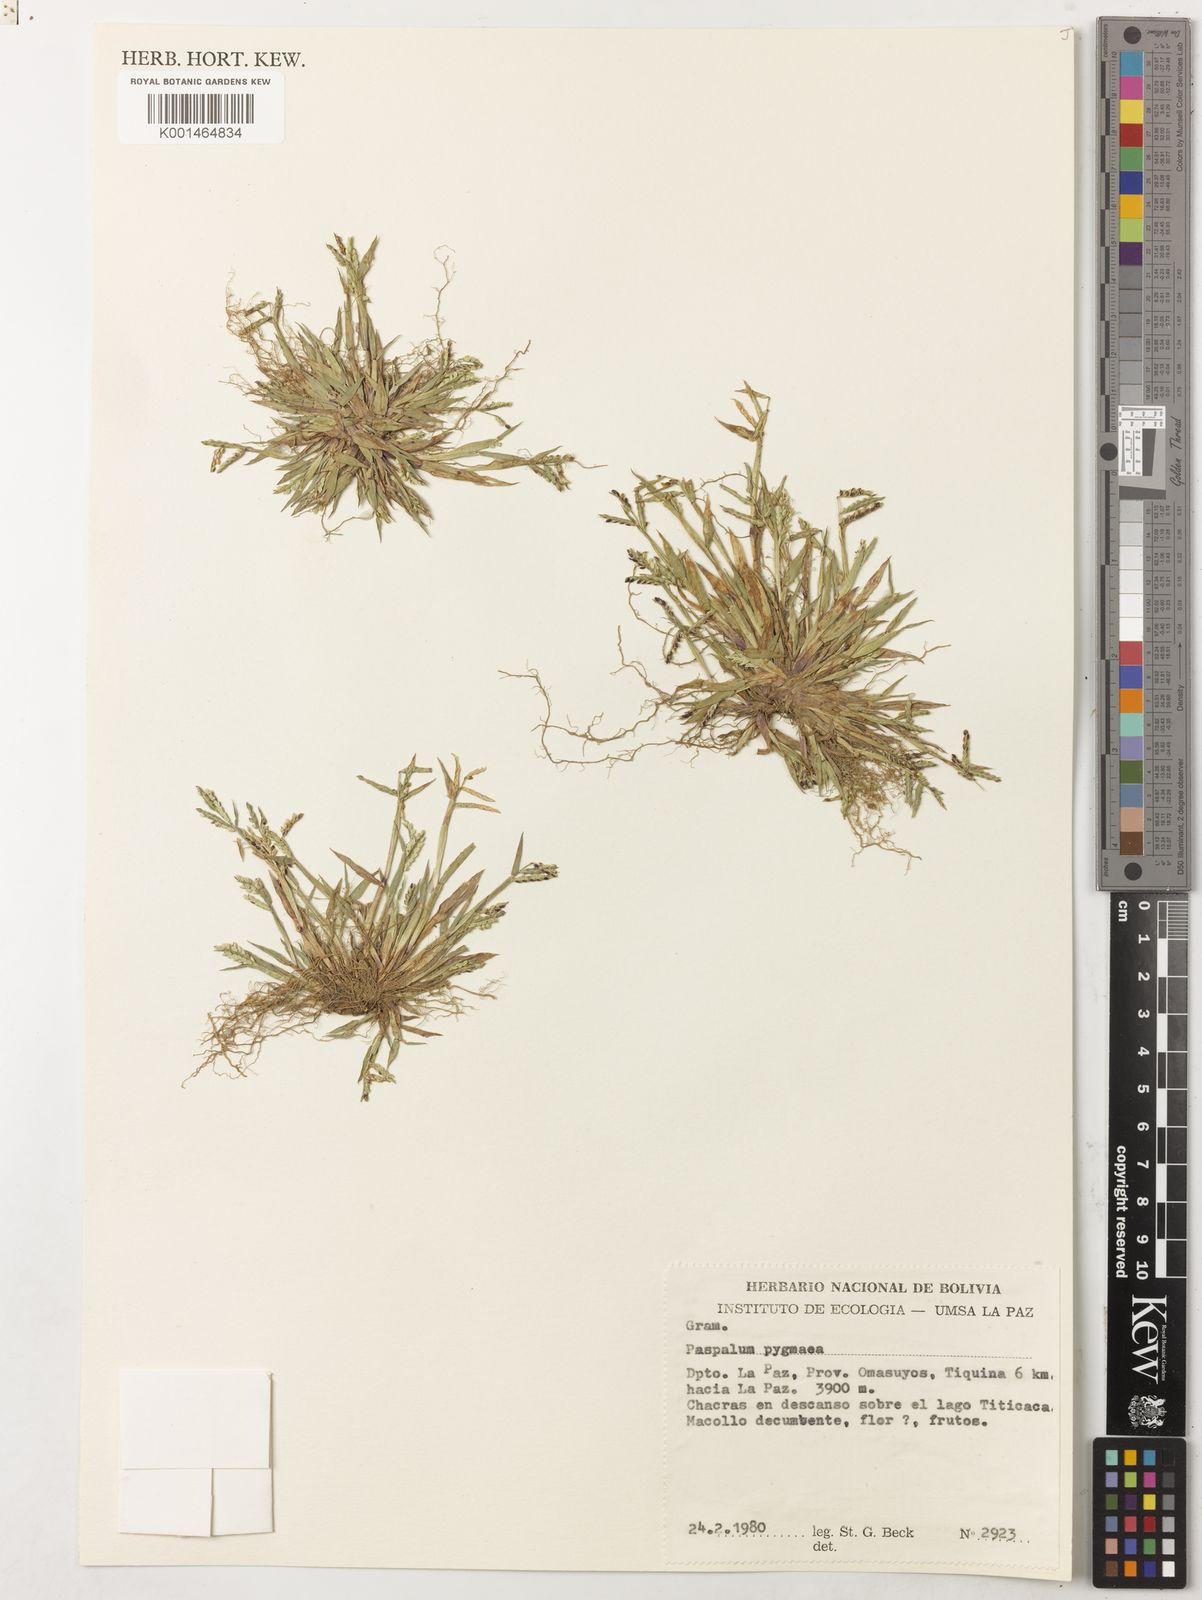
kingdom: Plantae
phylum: Tracheophyta
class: Liliopsida
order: Poales
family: Poaceae
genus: Paspalum
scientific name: Paspalum pygmaeum
